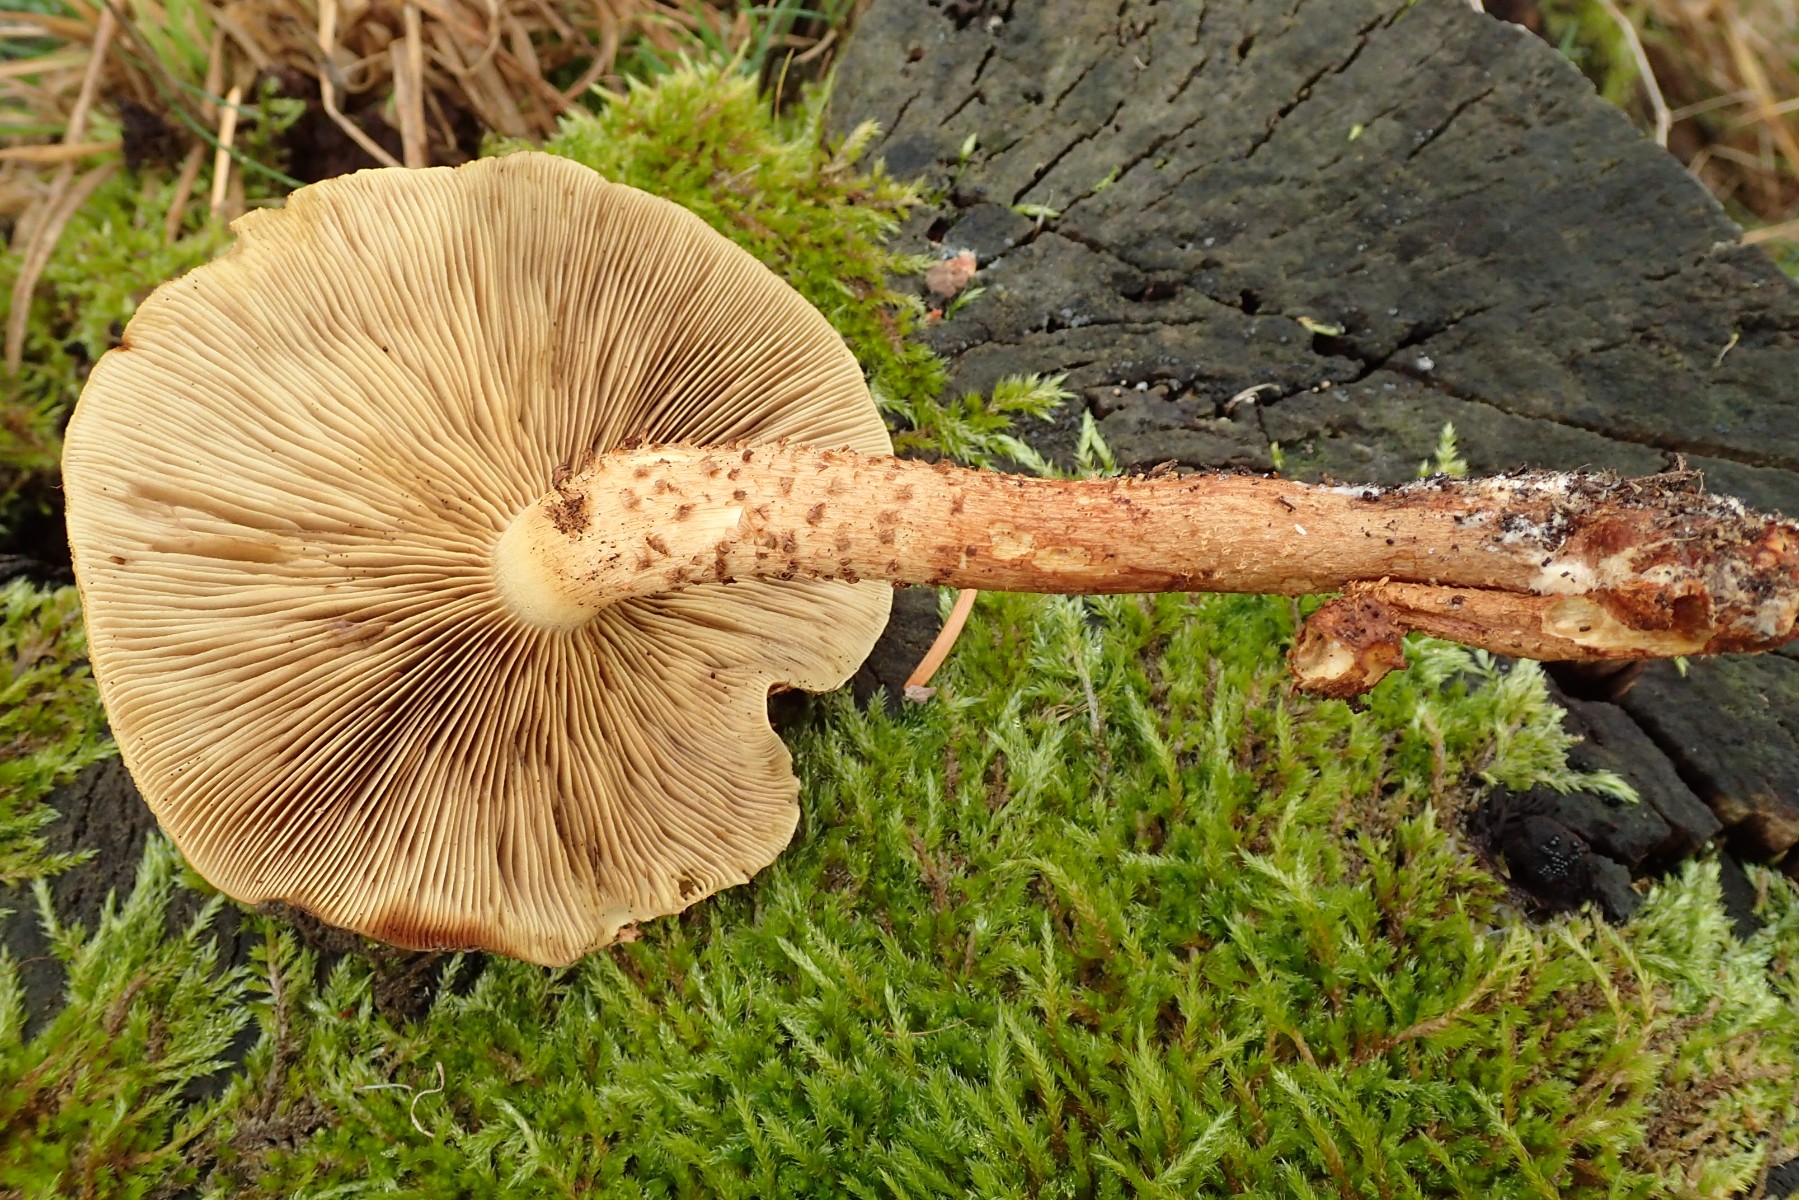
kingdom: Fungi
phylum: Basidiomycota
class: Agaricomycetes
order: Agaricales
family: Strophariaceae
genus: Pholiota
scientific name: Pholiota squarrosa
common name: krumskællet skælhat
